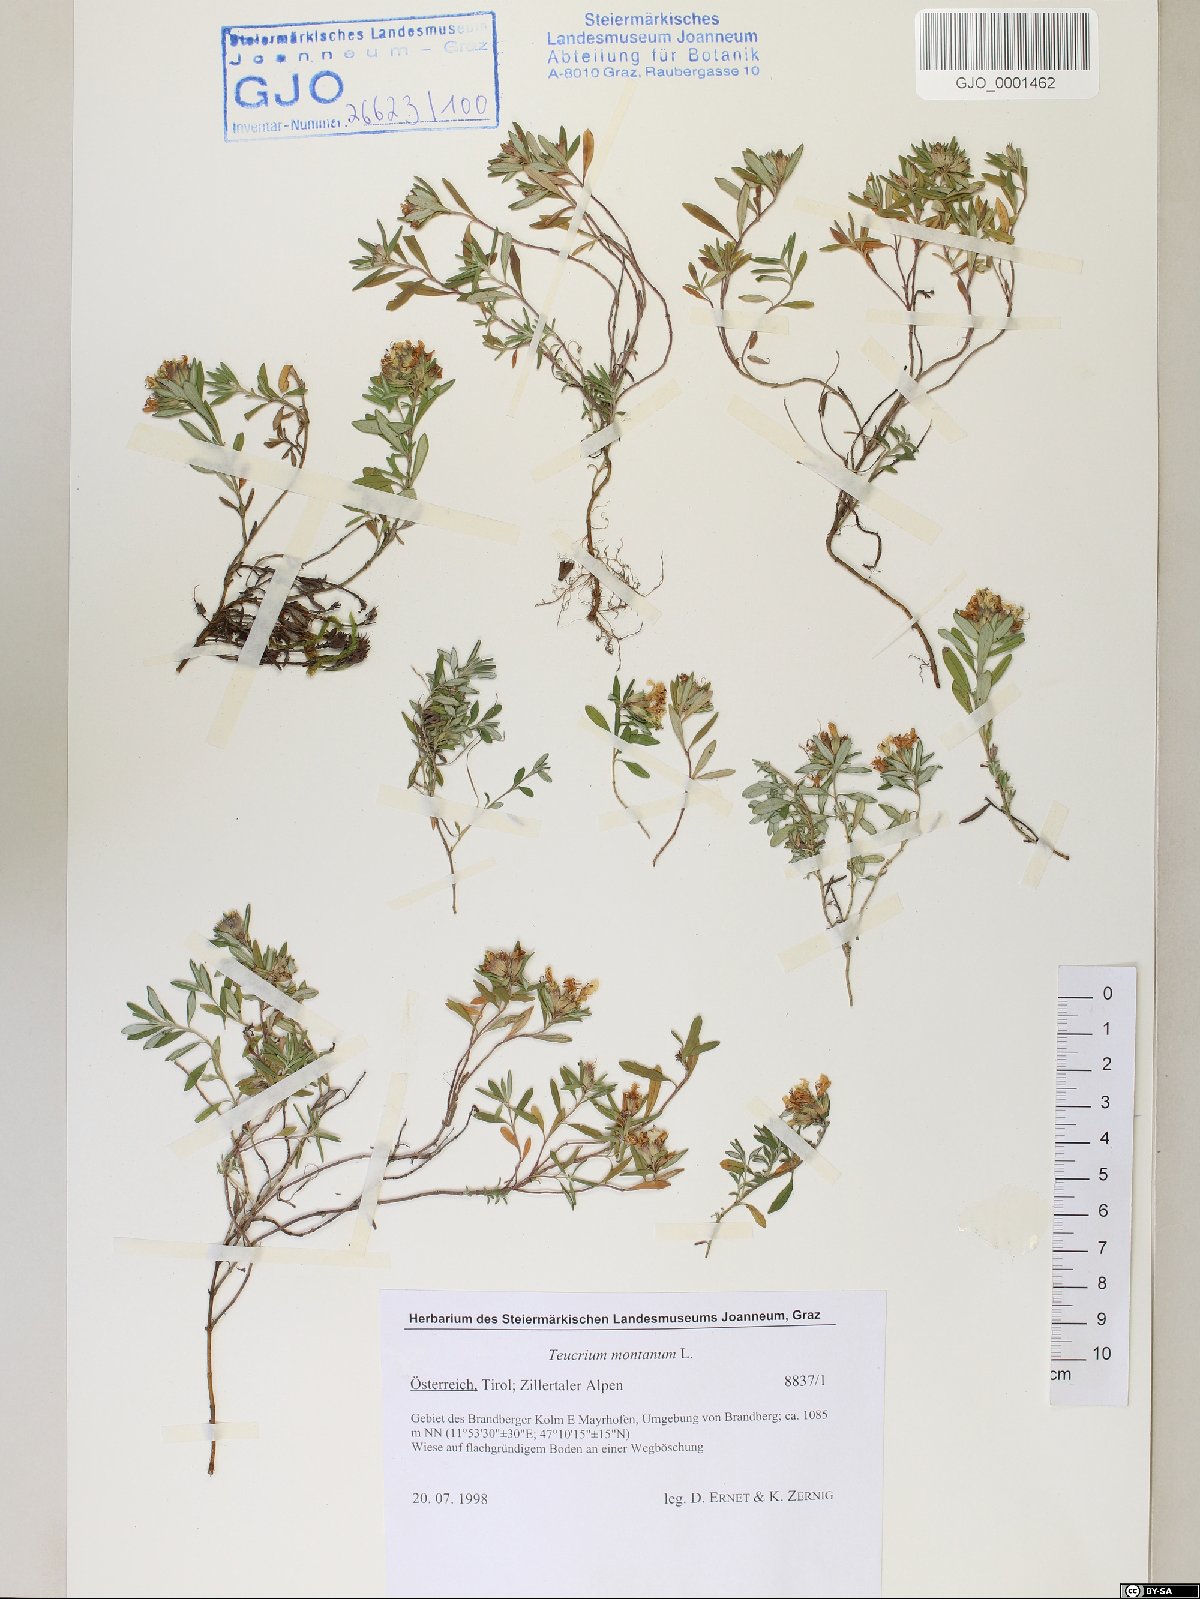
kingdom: Plantae
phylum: Tracheophyta
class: Magnoliopsida
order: Lamiales
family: Lamiaceae
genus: Teucrium
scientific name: Teucrium montanum
